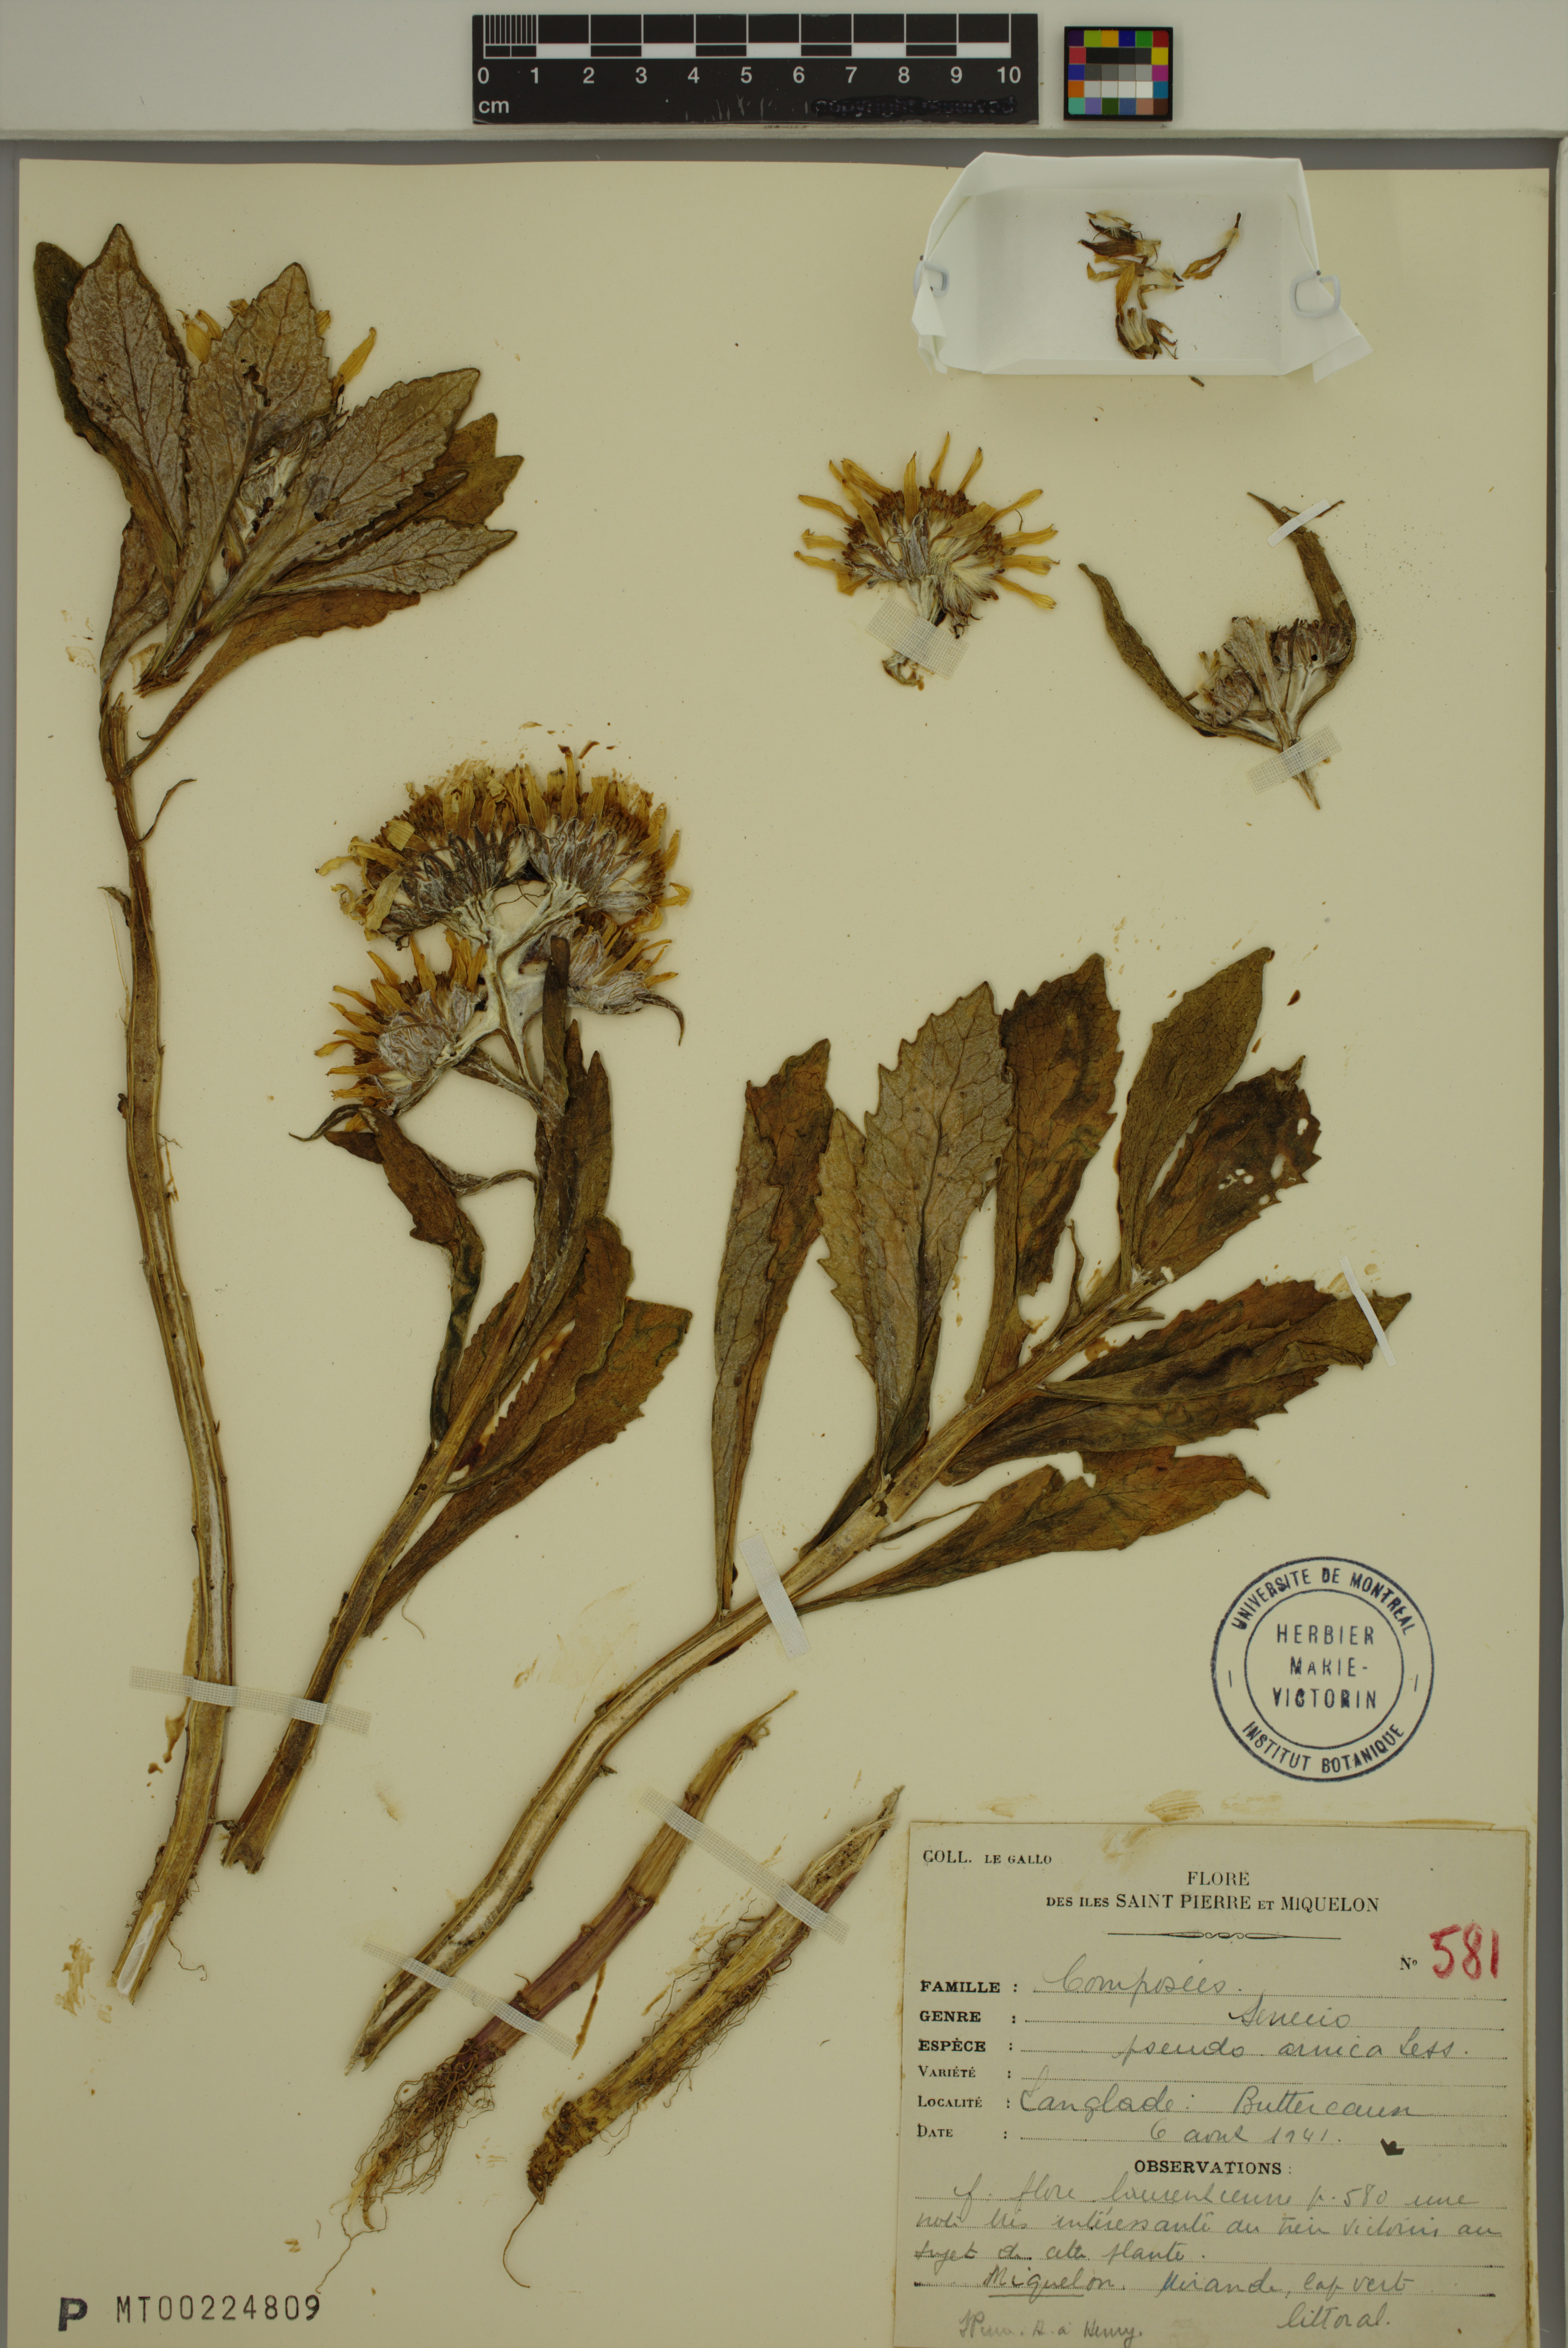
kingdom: Plantae
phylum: Tracheophyta
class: Magnoliopsida
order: Asterales
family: Asteraceae
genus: Jacobaea
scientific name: Jacobaea pseudoarnica
